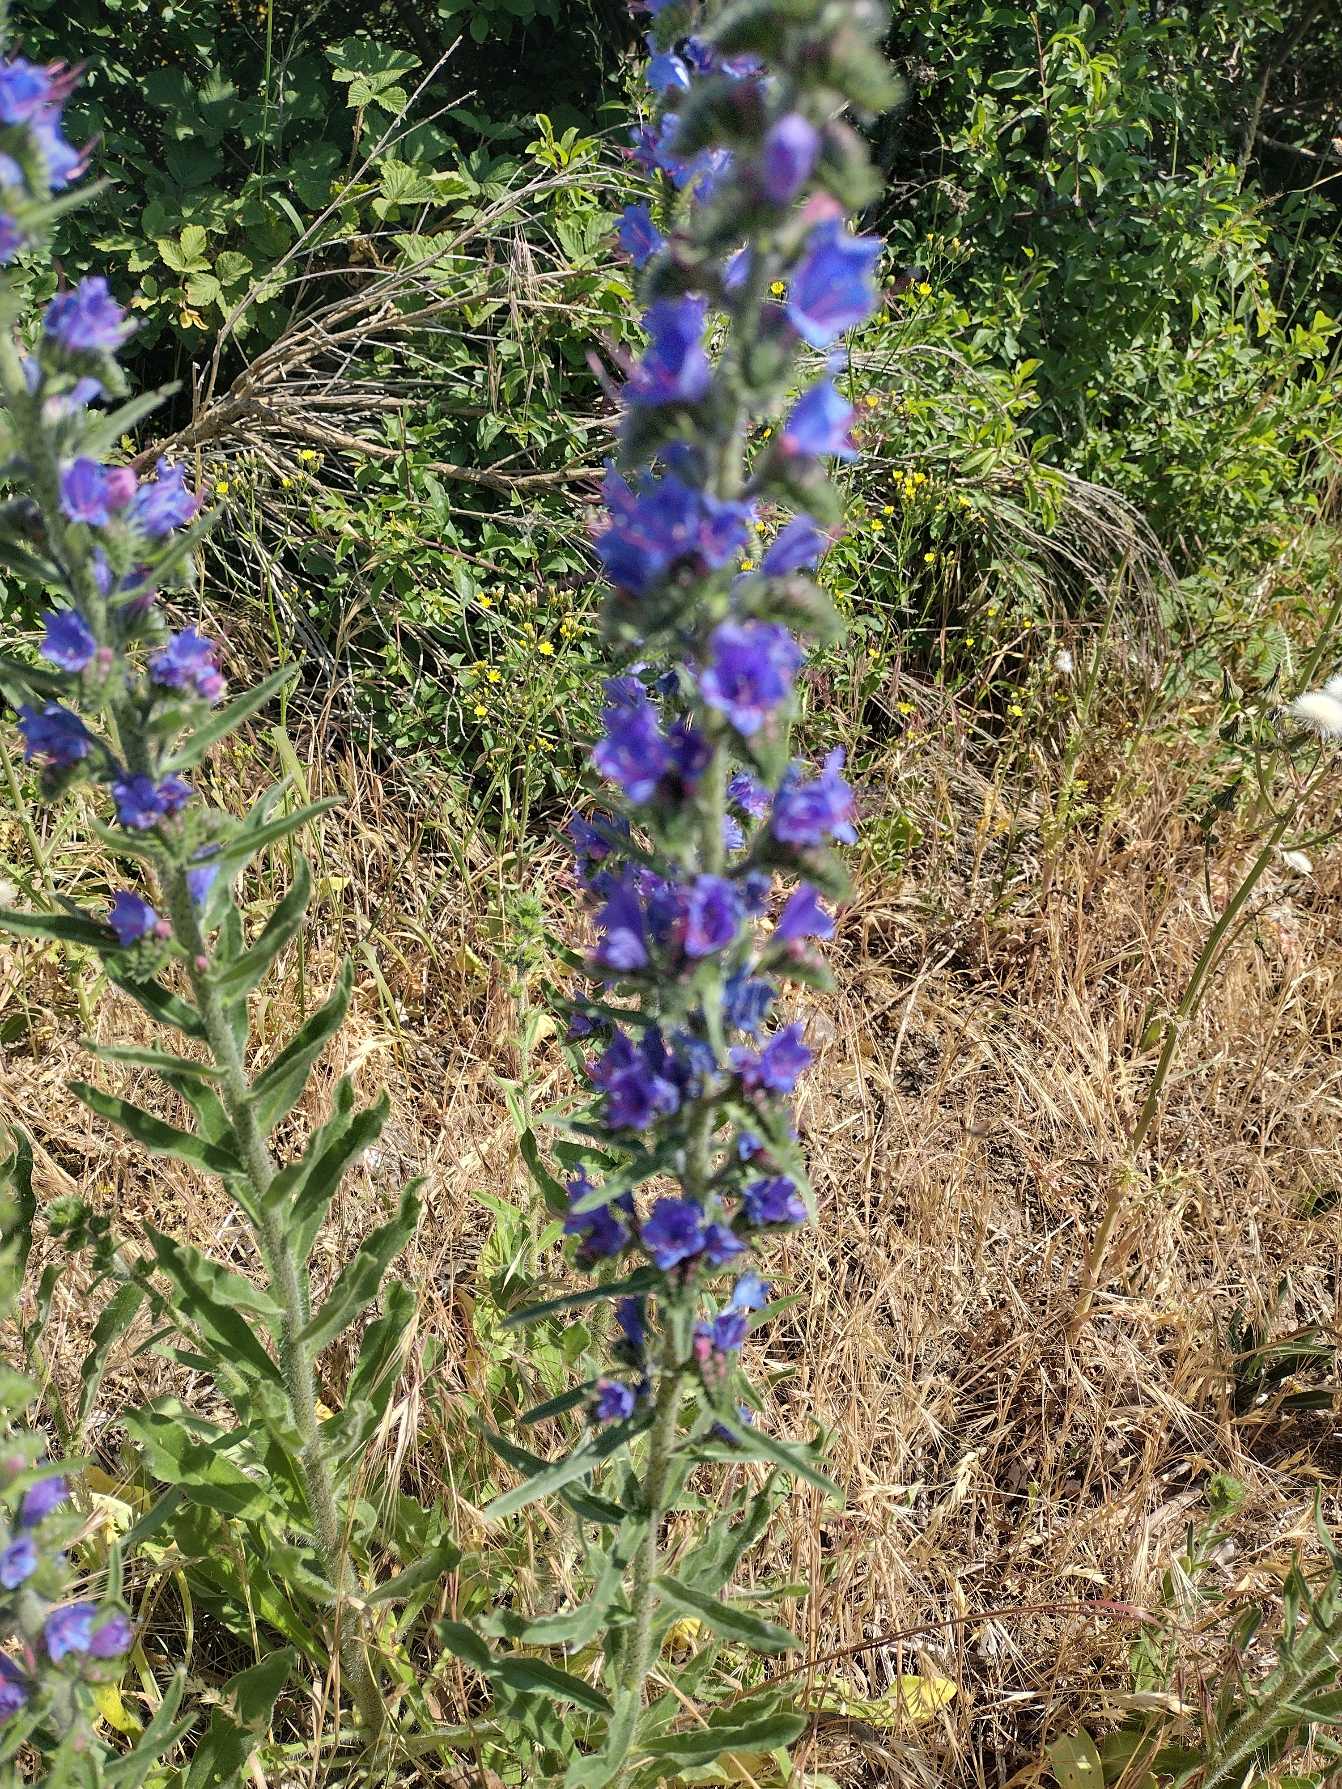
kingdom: Plantae
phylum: Tracheophyta
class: Magnoliopsida
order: Boraginales
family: Boraginaceae
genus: Echium
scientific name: Echium vulgare
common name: Slangehoved
